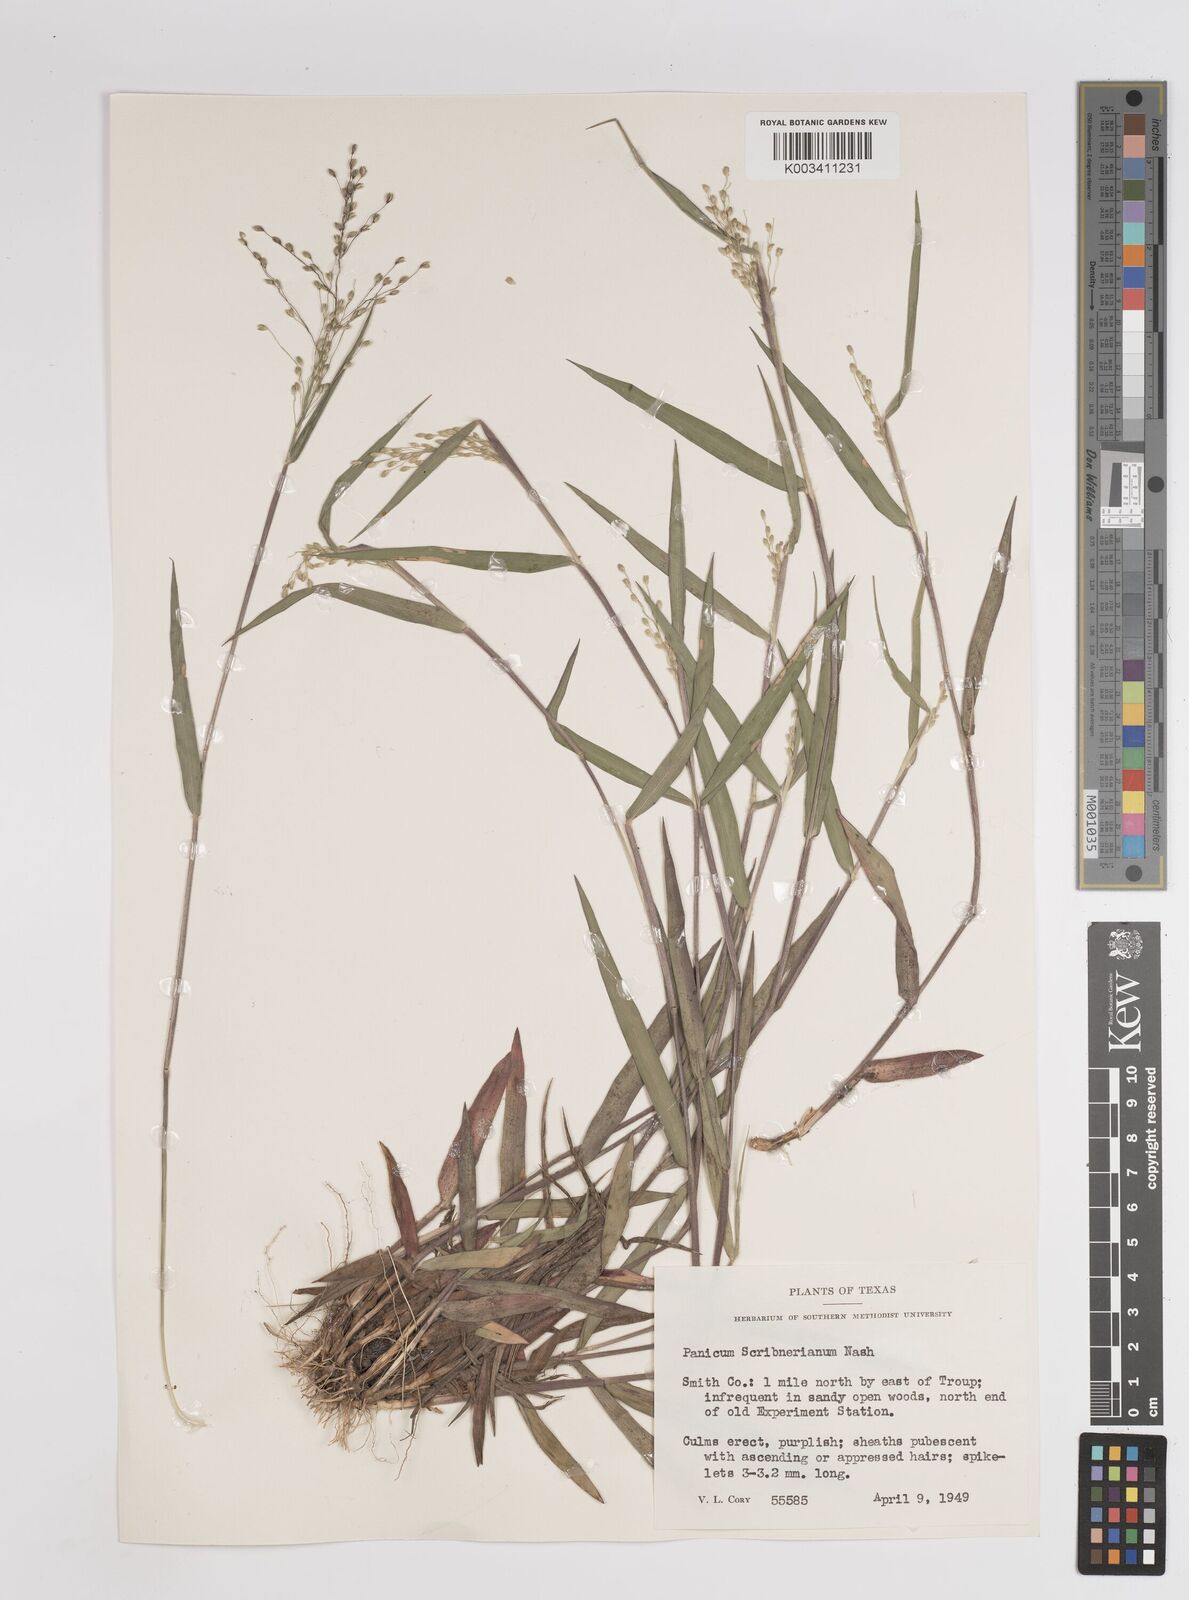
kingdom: Plantae
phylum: Tracheophyta
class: Liliopsida
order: Poales
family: Poaceae
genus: Dichanthelium
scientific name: Dichanthelium scribnerianum
